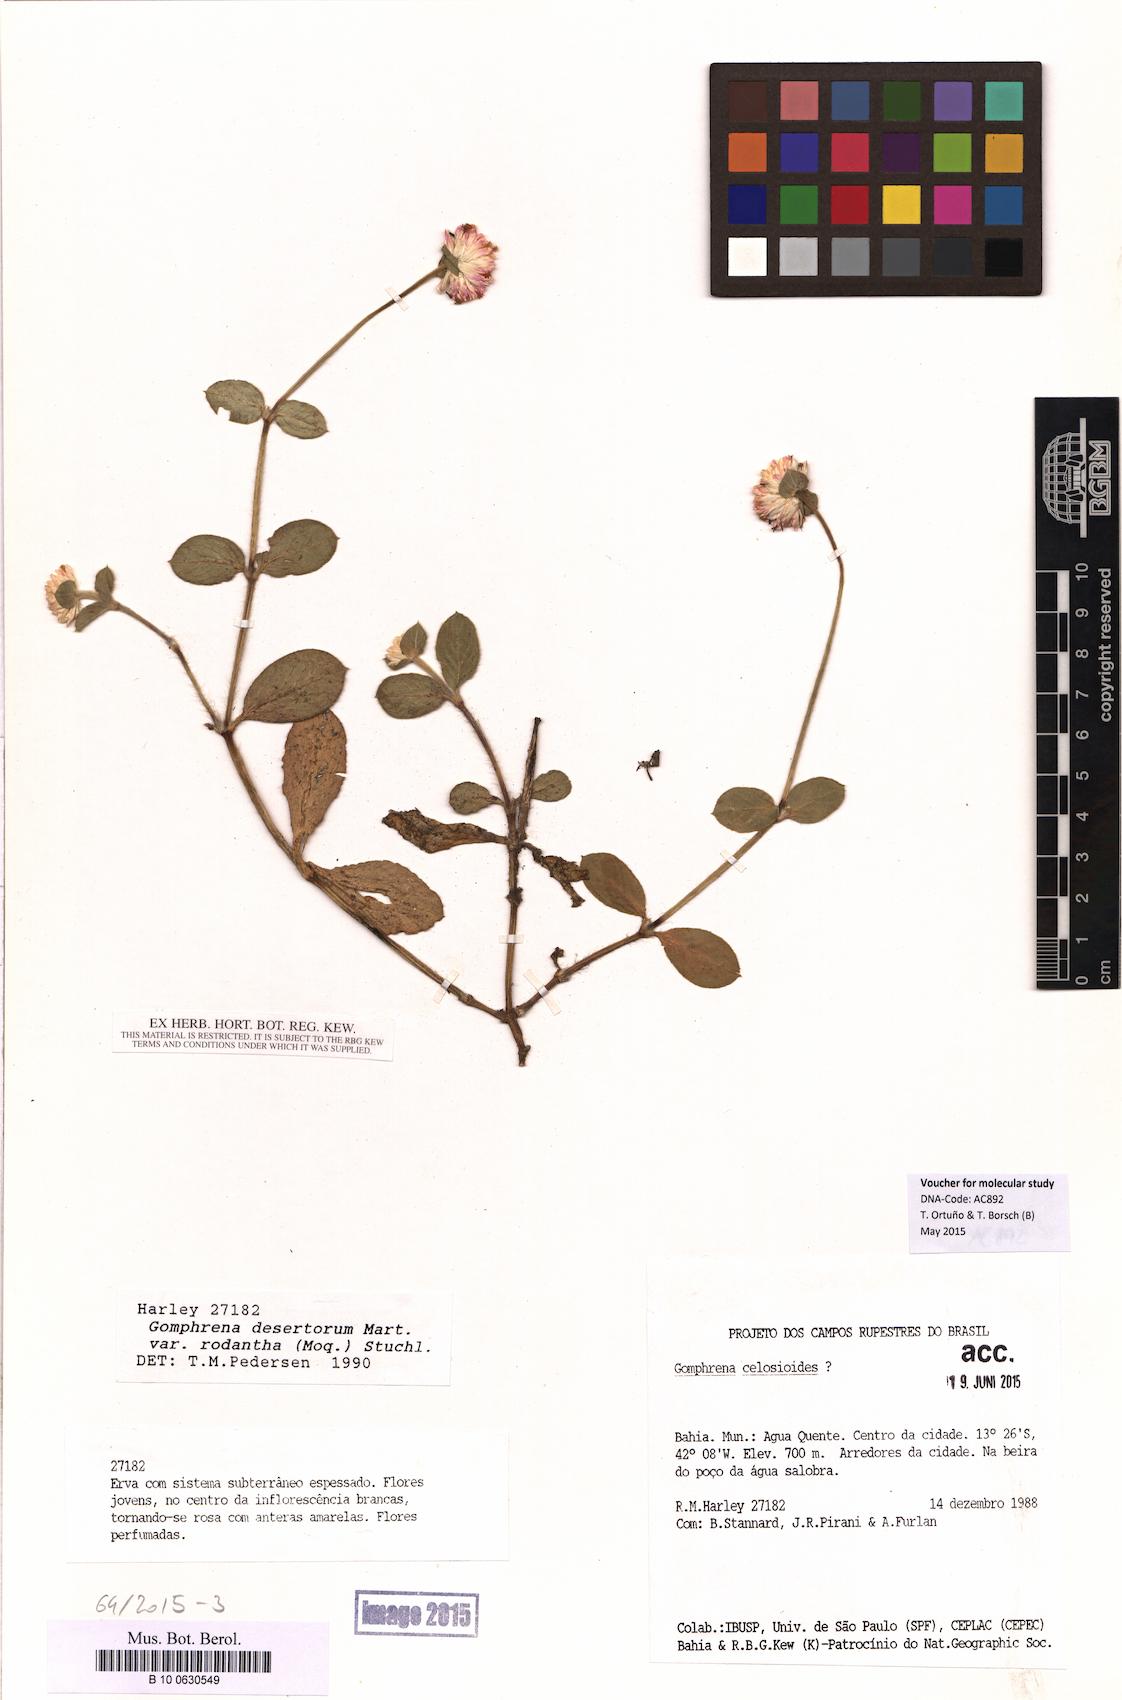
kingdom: Plantae
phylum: Tracheophyta
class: Magnoliopsida
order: Caryophyllales
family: Amaranthaceae
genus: Gomphrena
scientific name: Gomphrena desertorum
